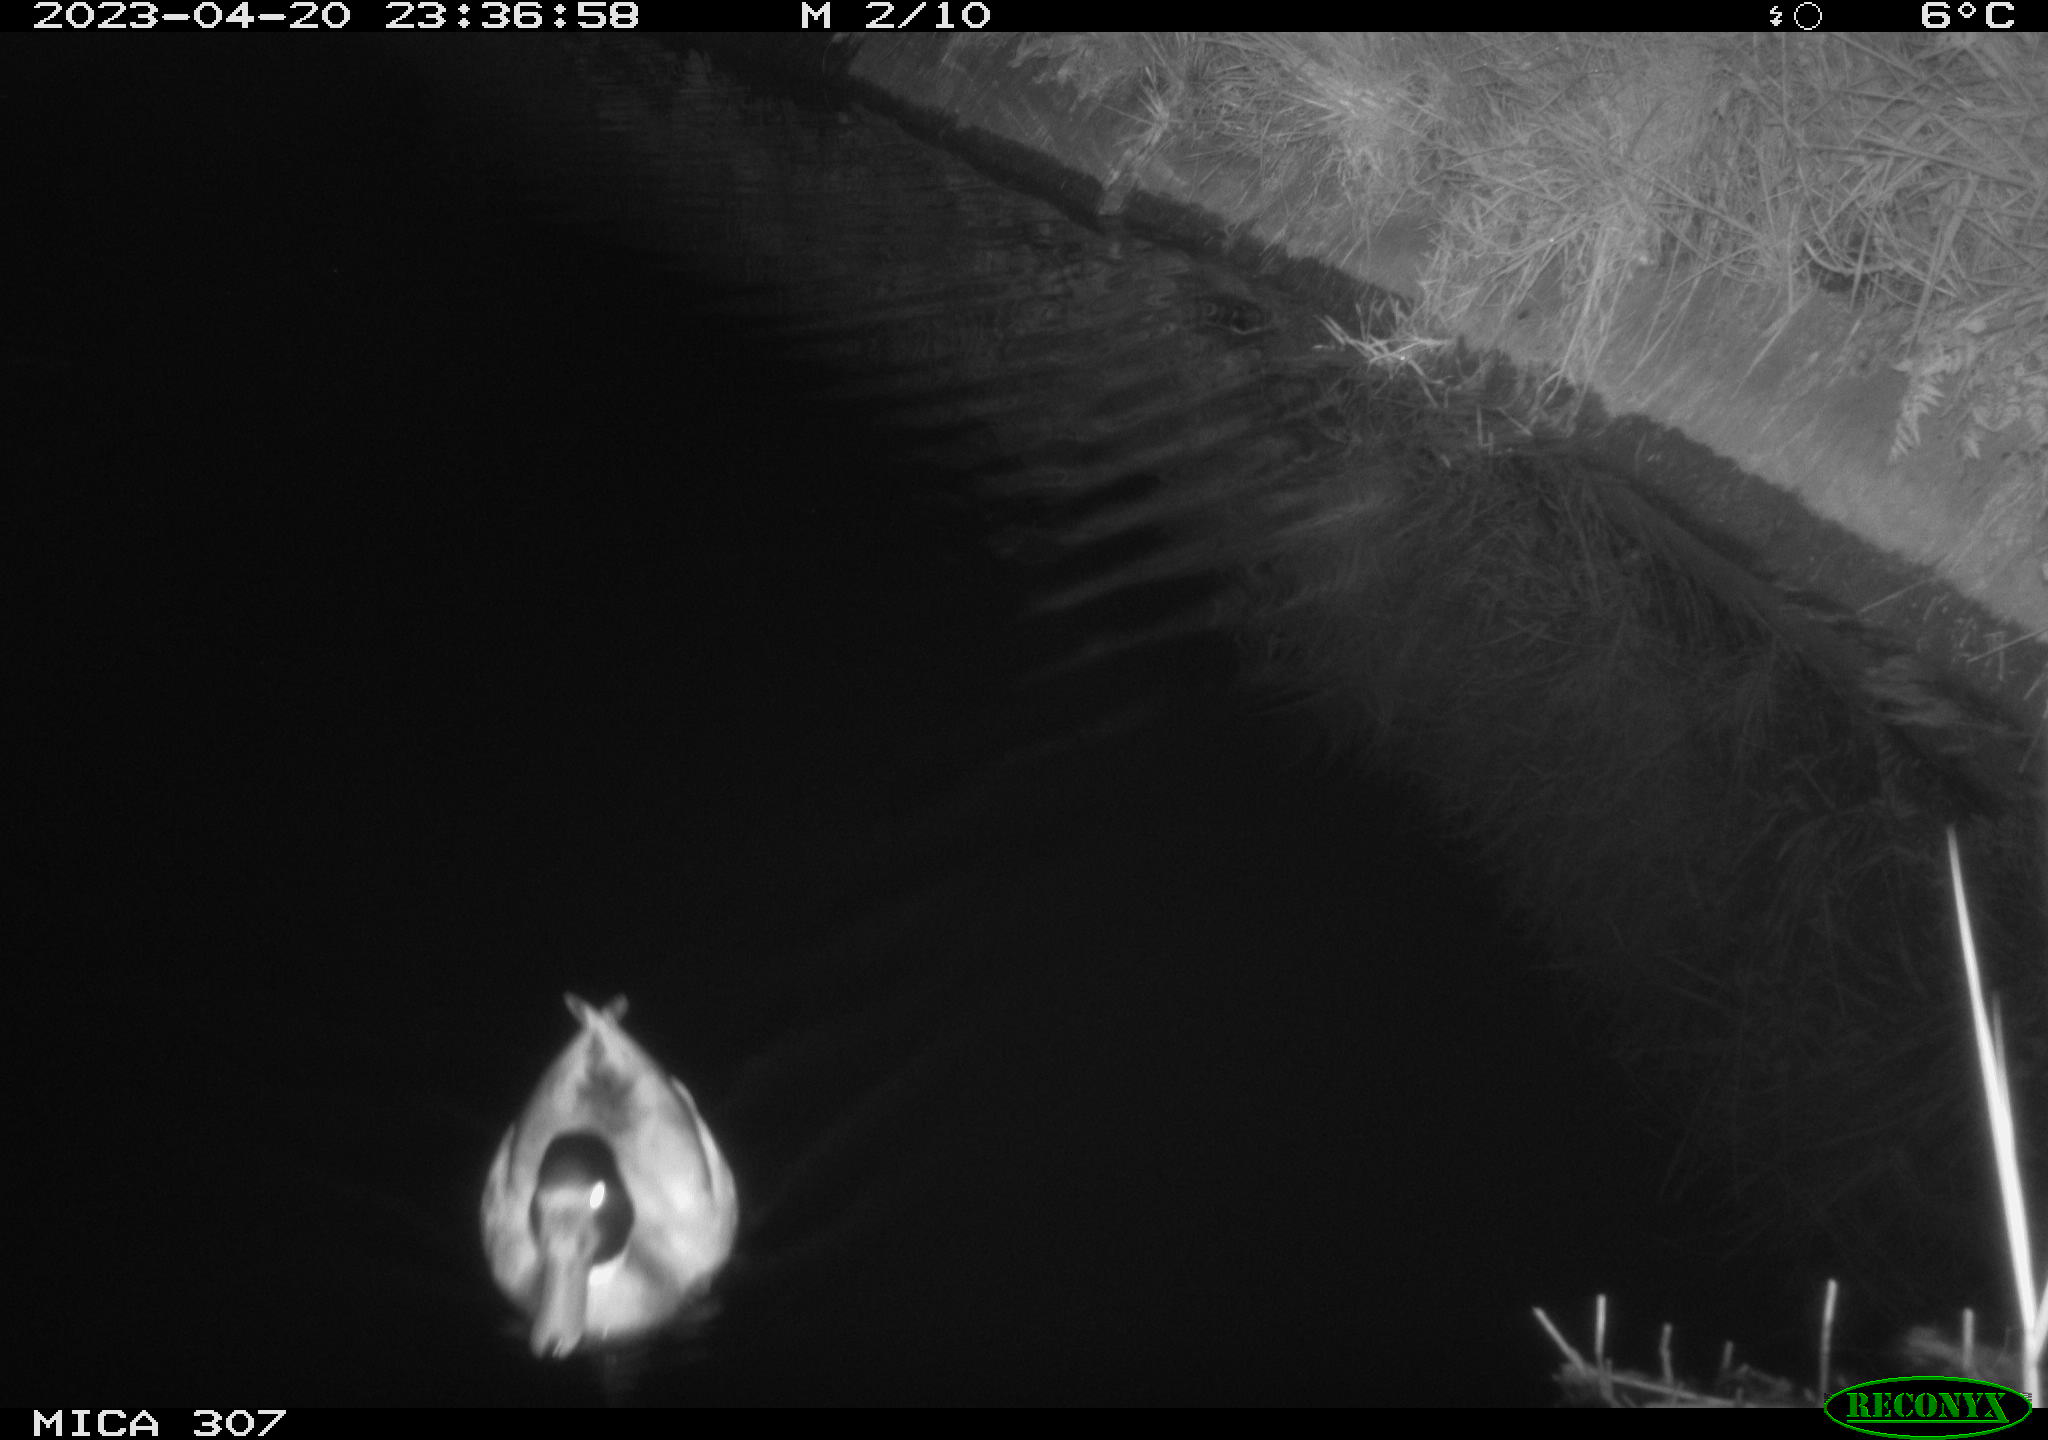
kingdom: Animalia
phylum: Chordata
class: Aves
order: Anseriformes
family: Anatidae
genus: Anas
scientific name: Anas
